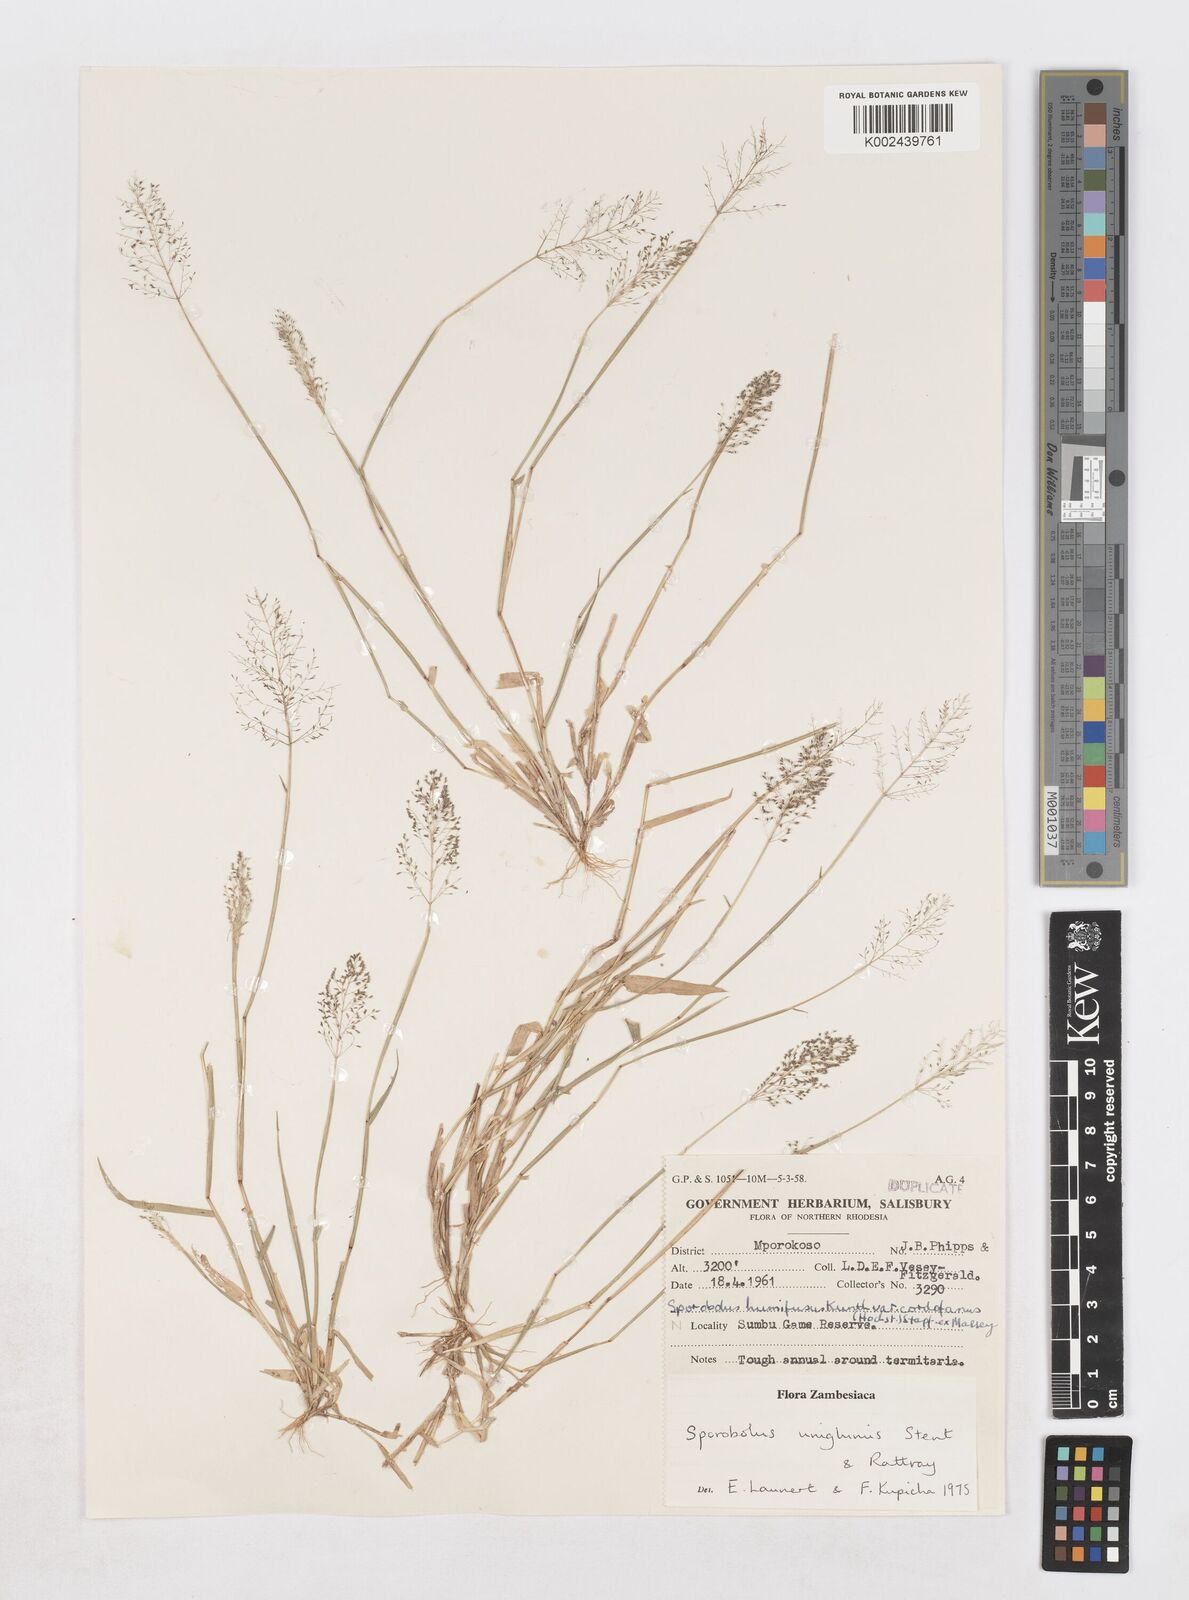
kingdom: Plantae
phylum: Tracheophyta
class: Liliopsida
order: Poales
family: Poaceae
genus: Sporobolus
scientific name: Sporobolus uniglumis
